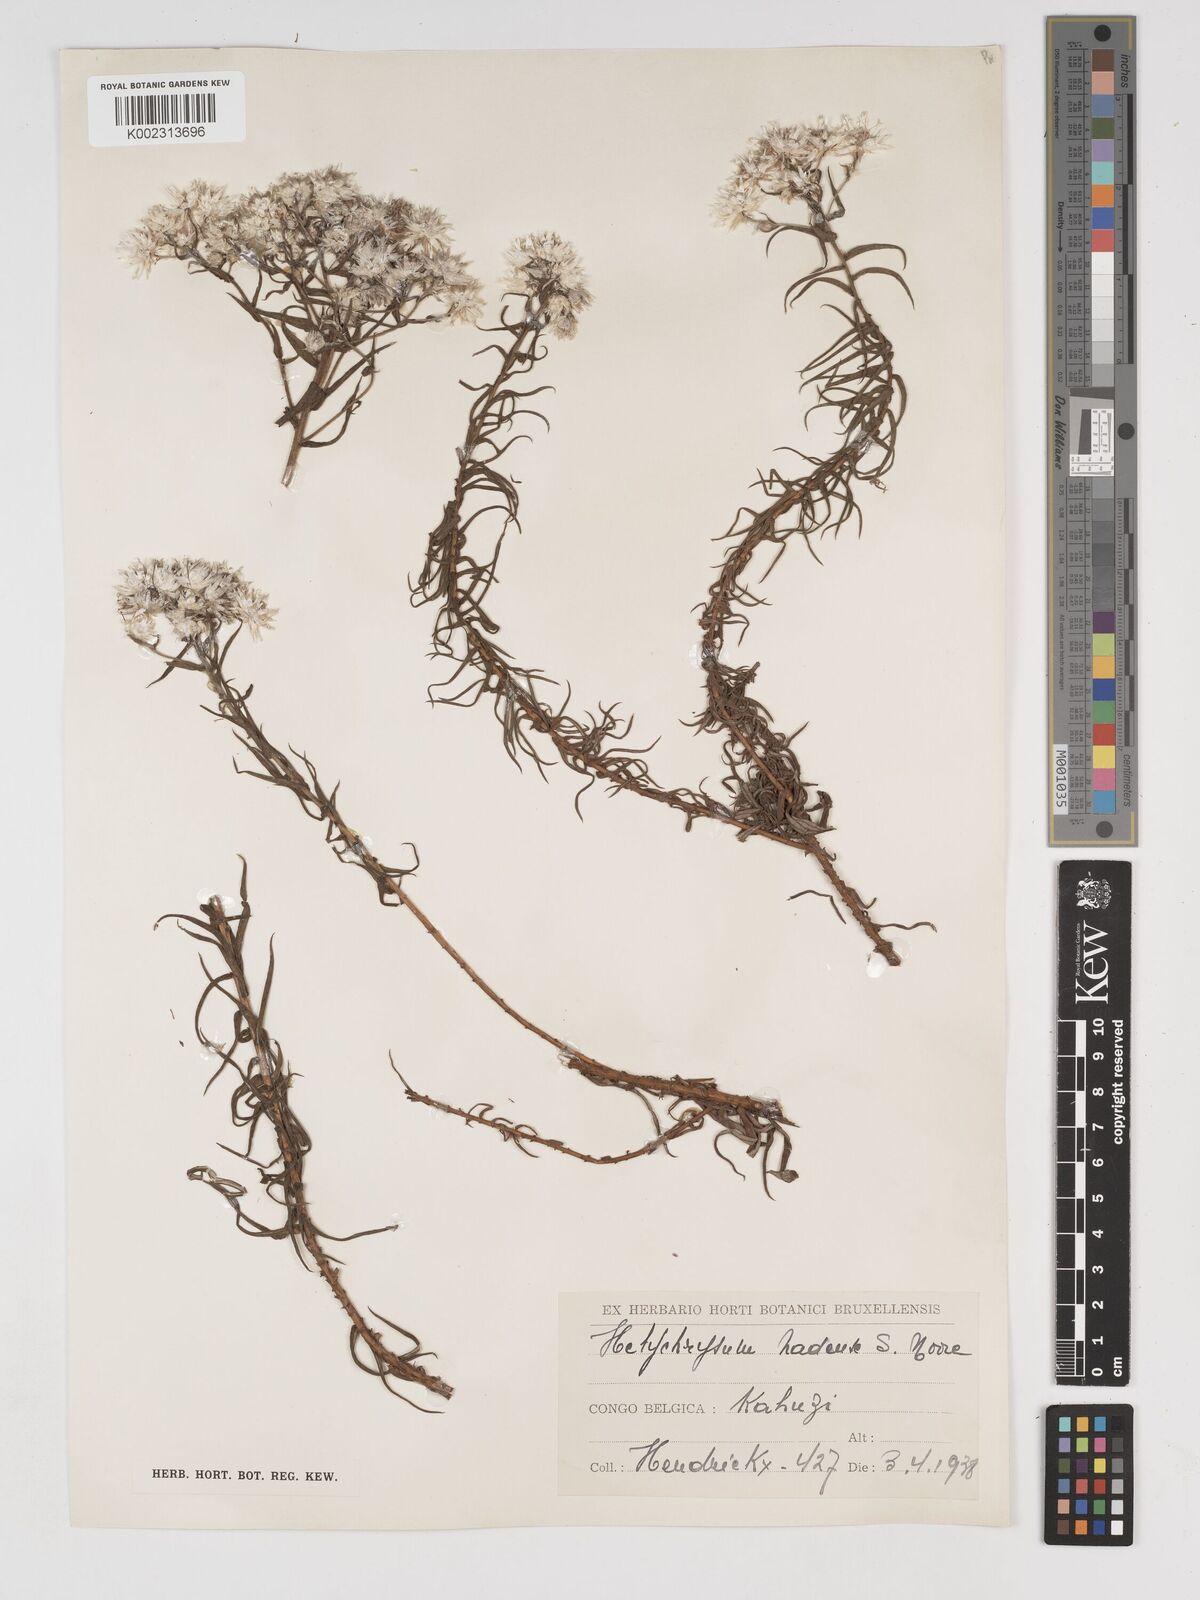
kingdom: Plantae
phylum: Tracheophyta
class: Magnoliopsida
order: Asterales
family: Asteraceae
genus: Helichrysum
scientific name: Helichrysum argyranthum
